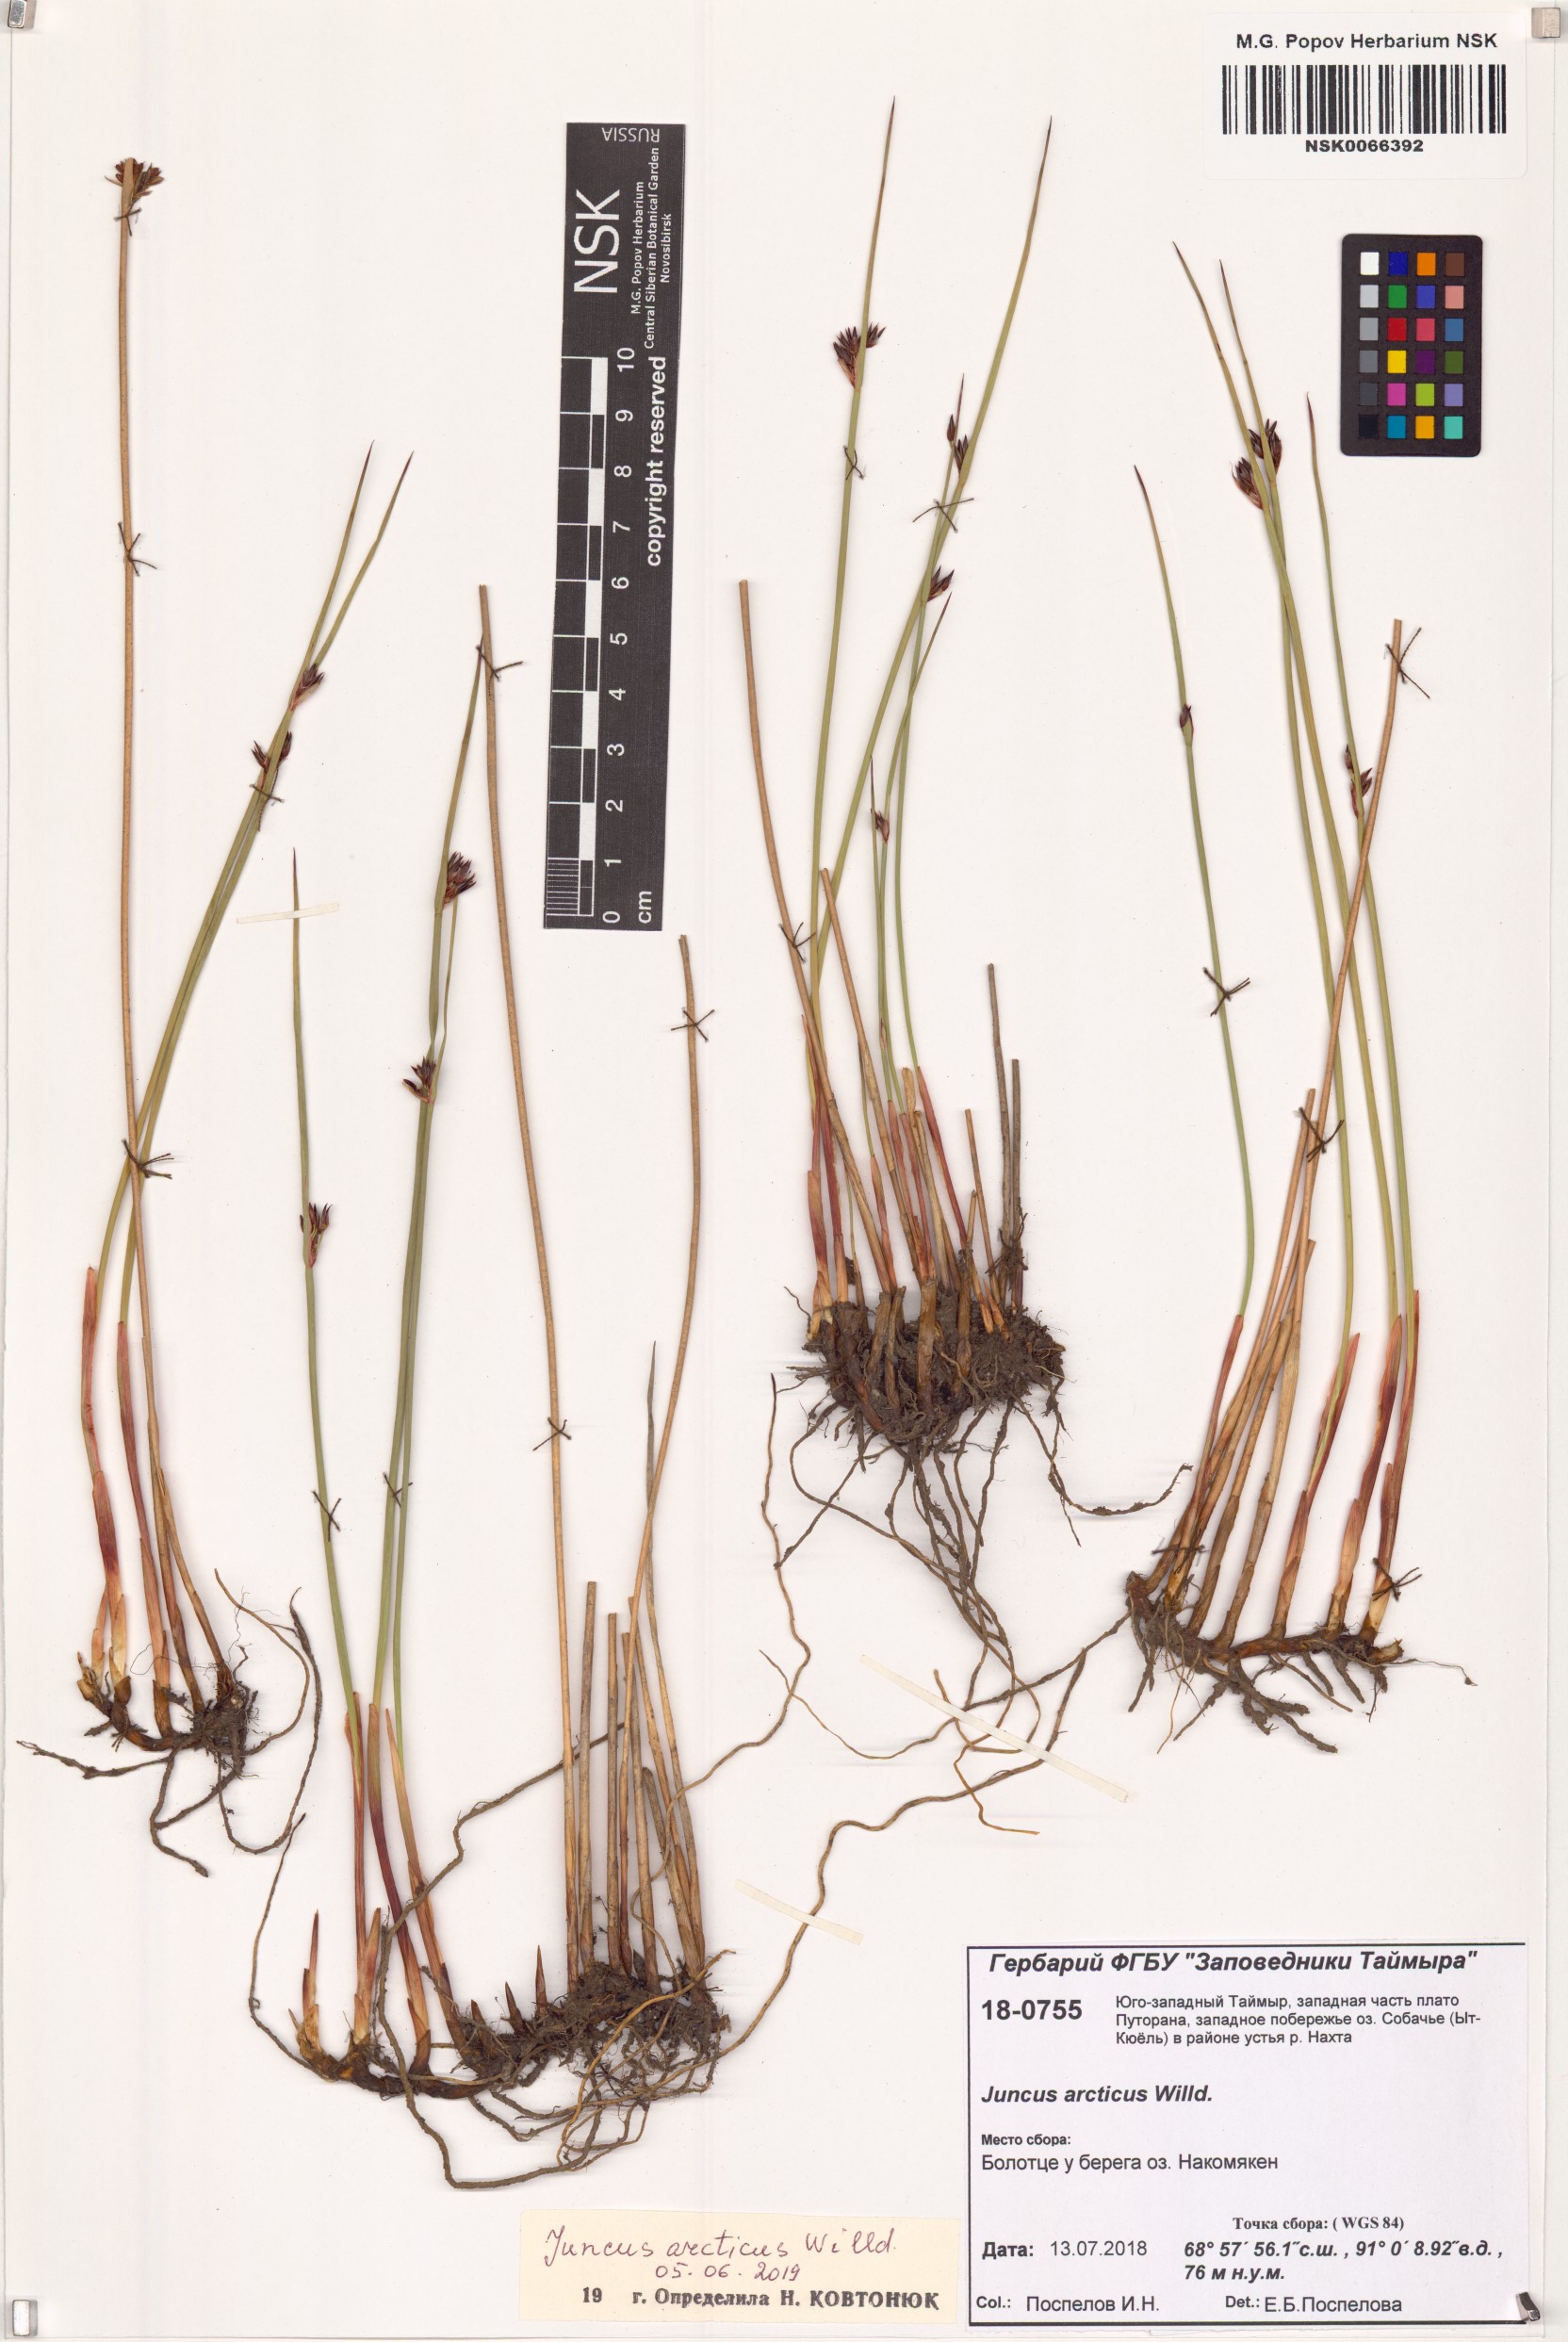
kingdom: Plantae
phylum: Tracheophyta
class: Liliopsida
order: Poales
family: Juncaceae
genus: Juncus
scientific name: Juncus arcticus
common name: Arctic rush
